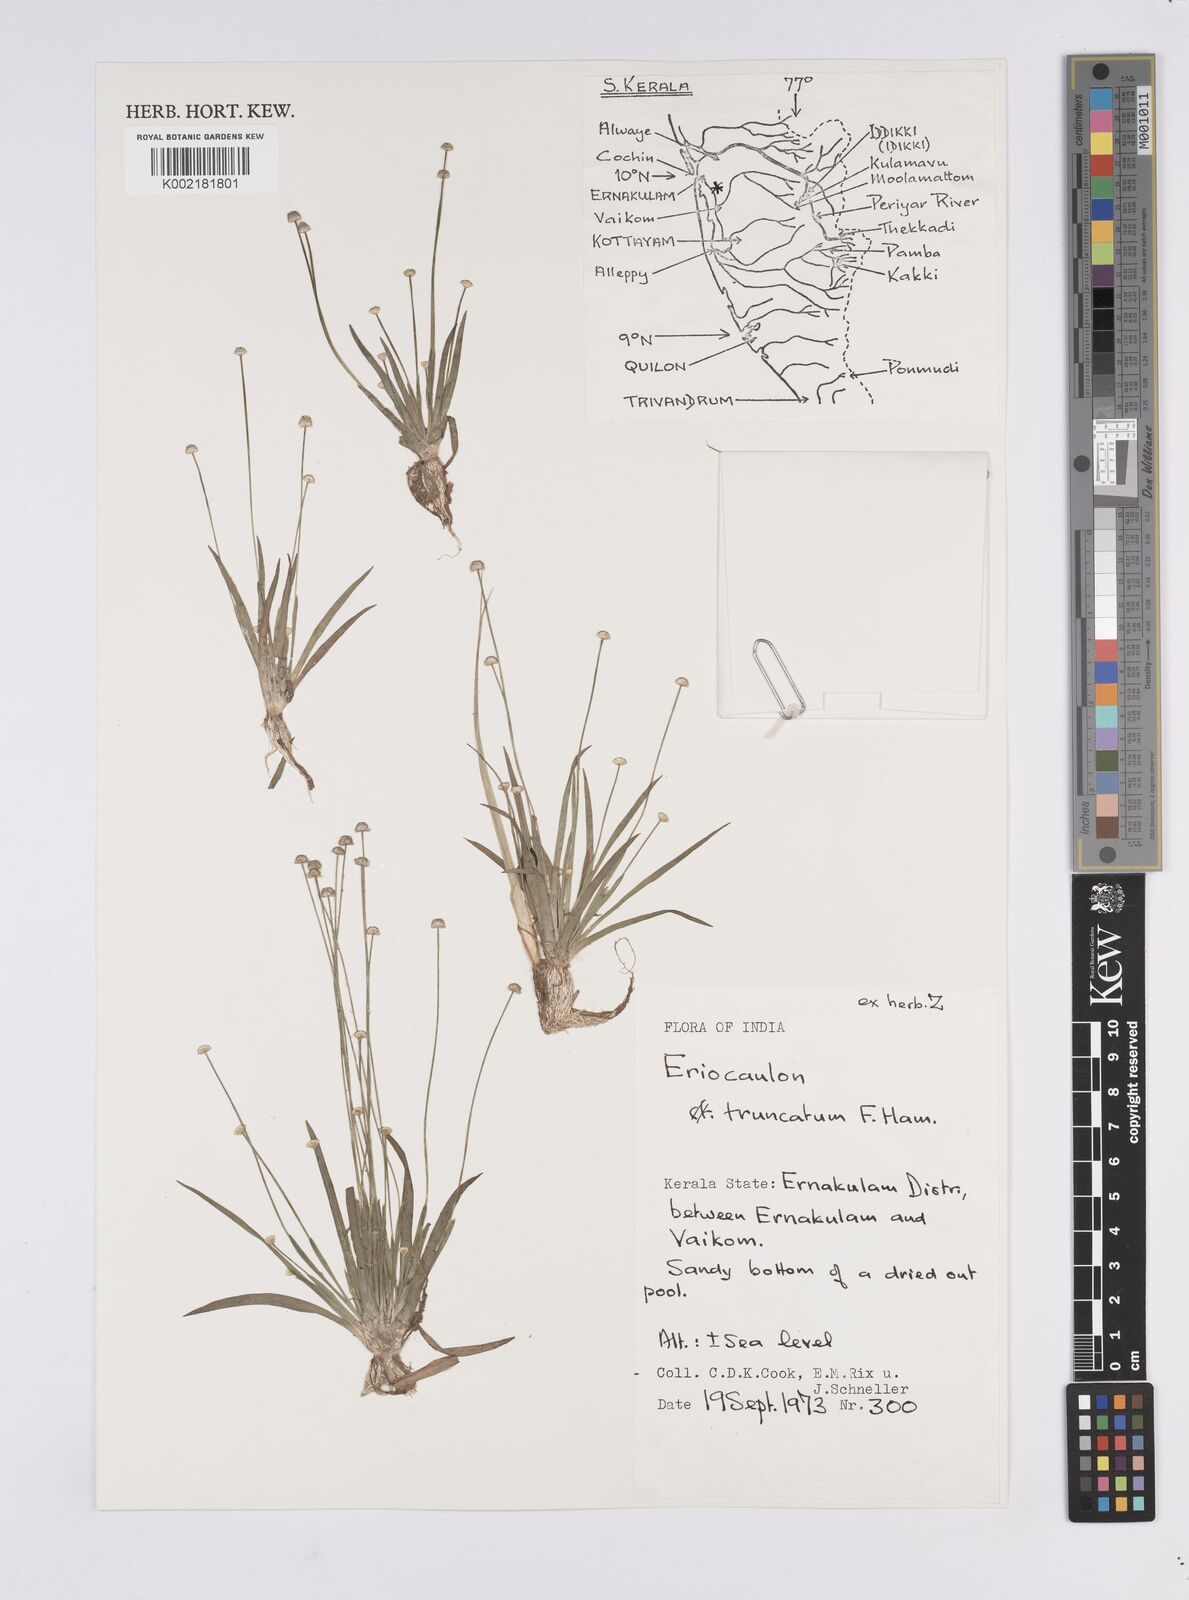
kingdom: Plantae
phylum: Tracheophyta
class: Liliopsida
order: Poales
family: Eriocaulaceae
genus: Eriocaulon
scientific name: Eriocaulon truncatum
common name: Short pipe-wort
